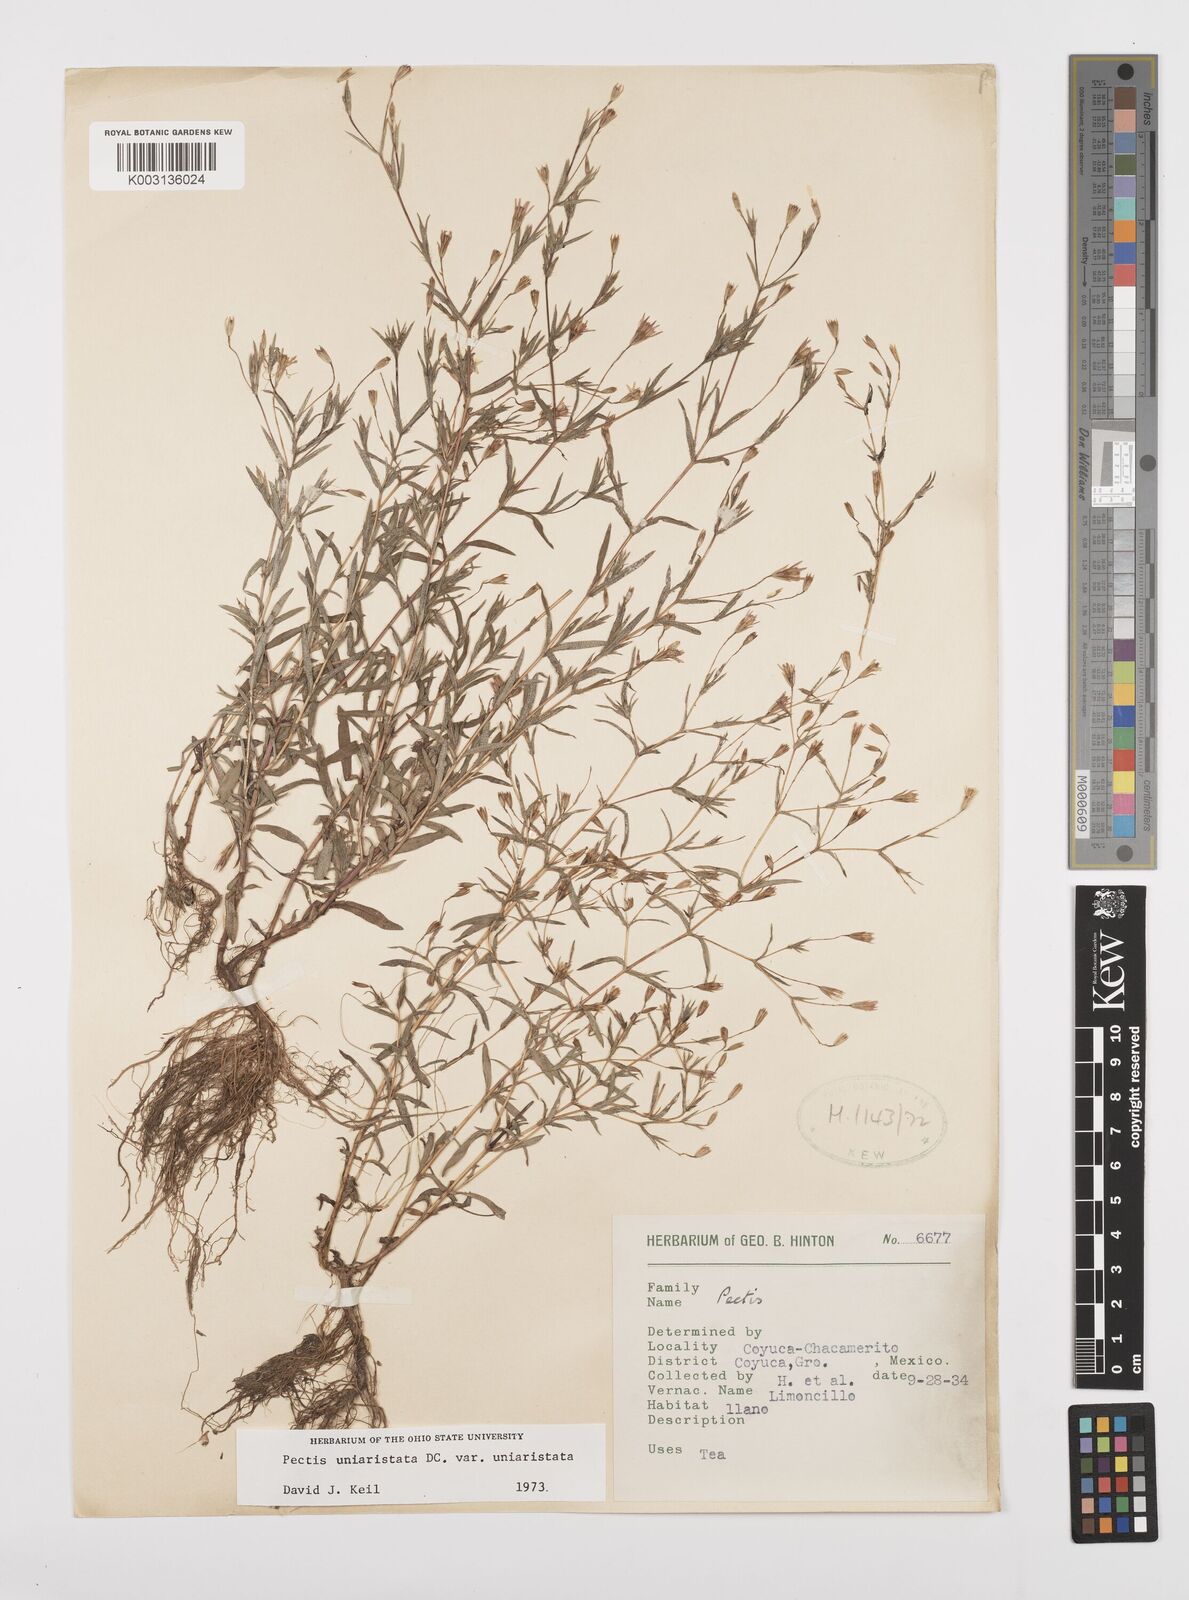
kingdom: Plantae
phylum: Tracheophyta
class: Magnoliopsida
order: Asterales
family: Asteraceae
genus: Pectis
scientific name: Pectis uniaristata
